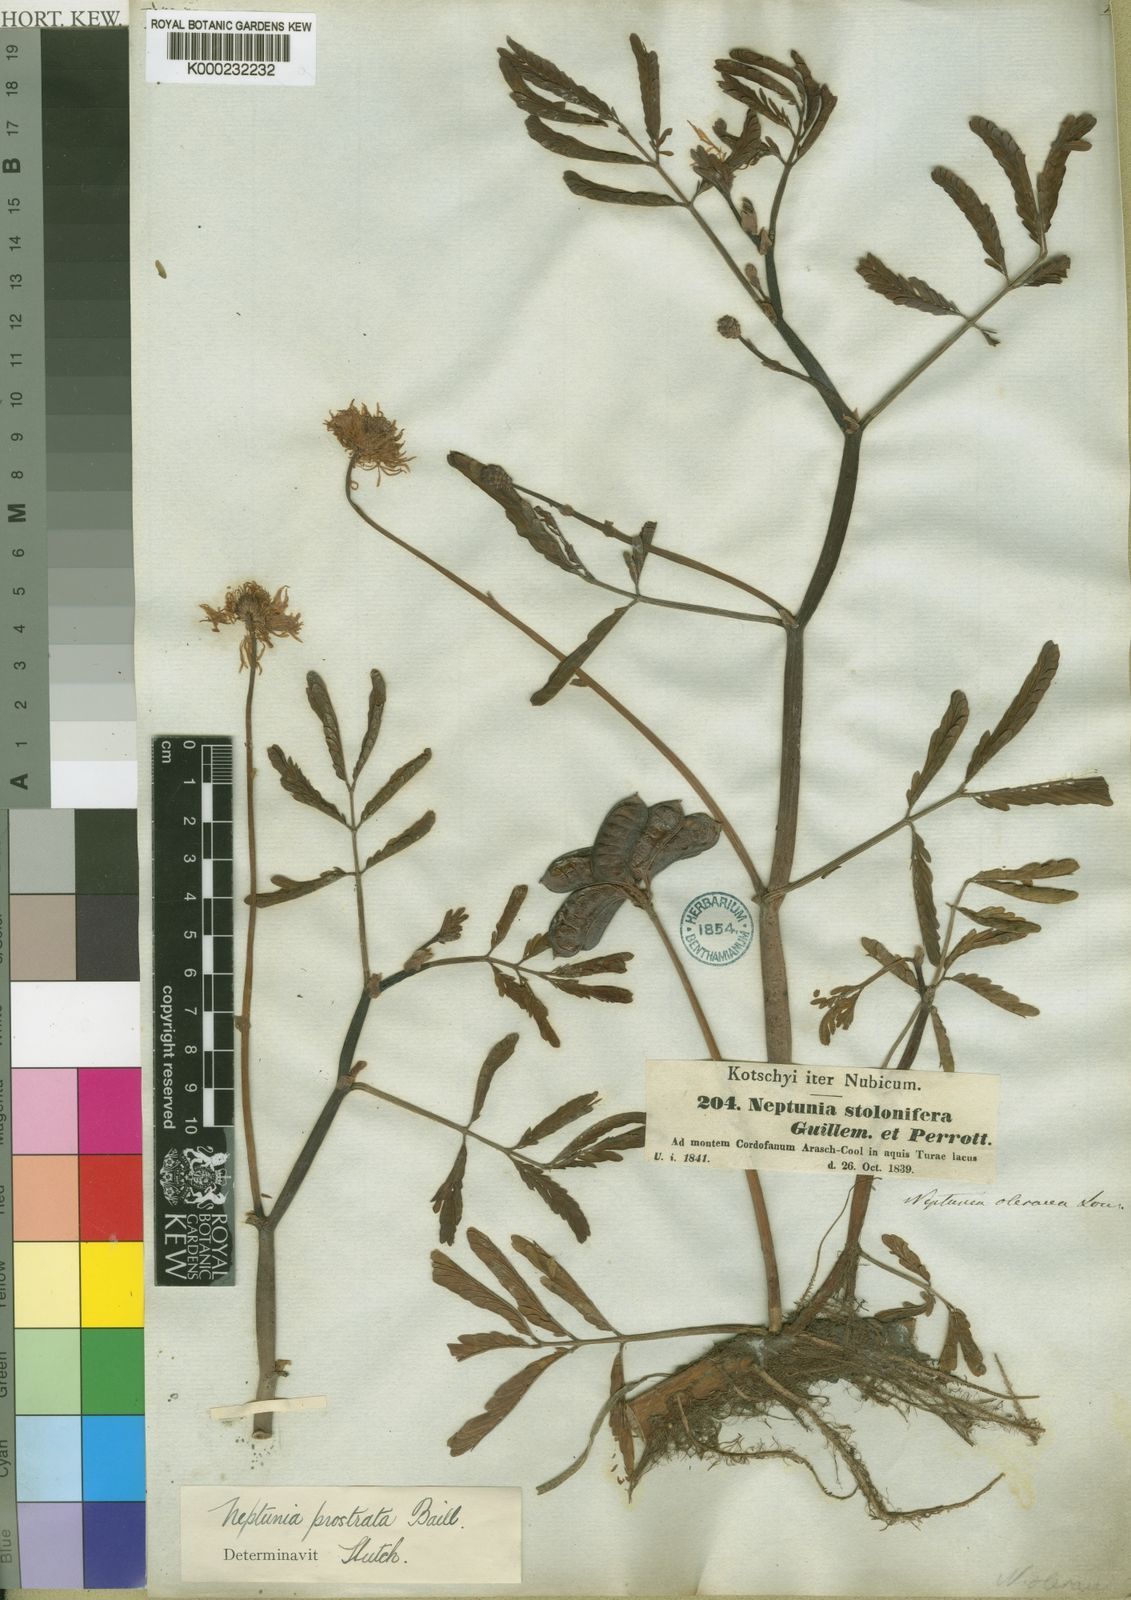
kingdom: Plantae
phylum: Tracheophyta
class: Magnoliopsida
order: Fabales
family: Fabaceae
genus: Neptunia
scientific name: Neptunia prostrata
